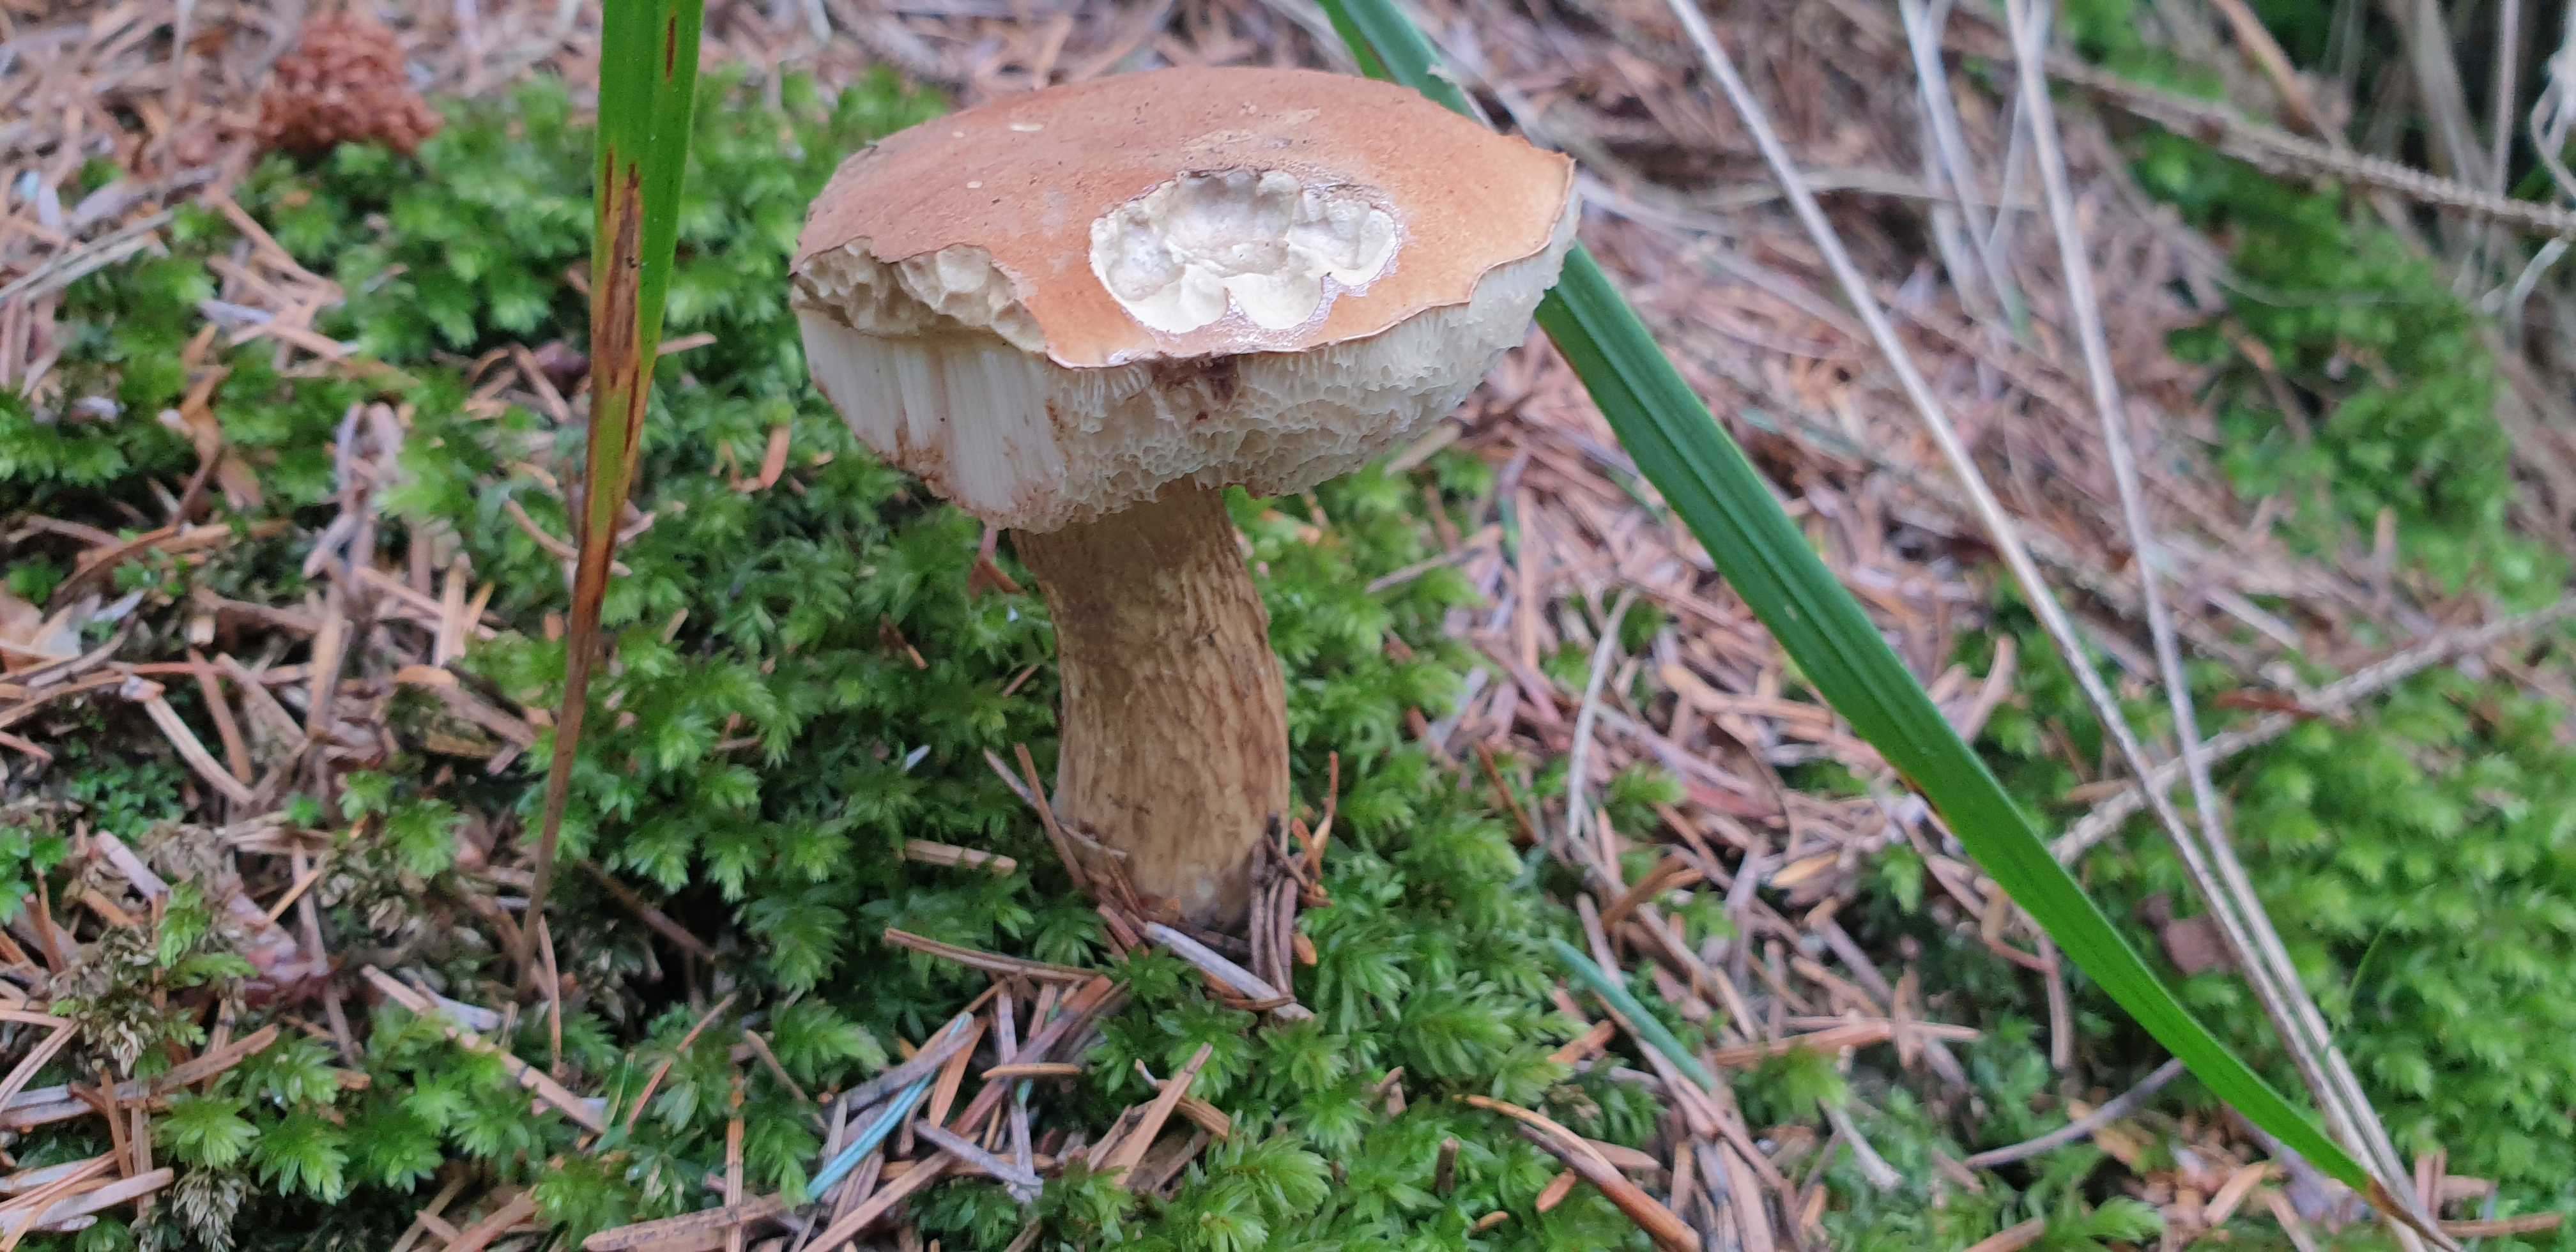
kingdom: Fungi
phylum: Basidiomycota
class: Agaricomycetes
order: Boletales
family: Boletaceae
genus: Tylopilus
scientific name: Tylopilus felleus
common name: galderørhat
